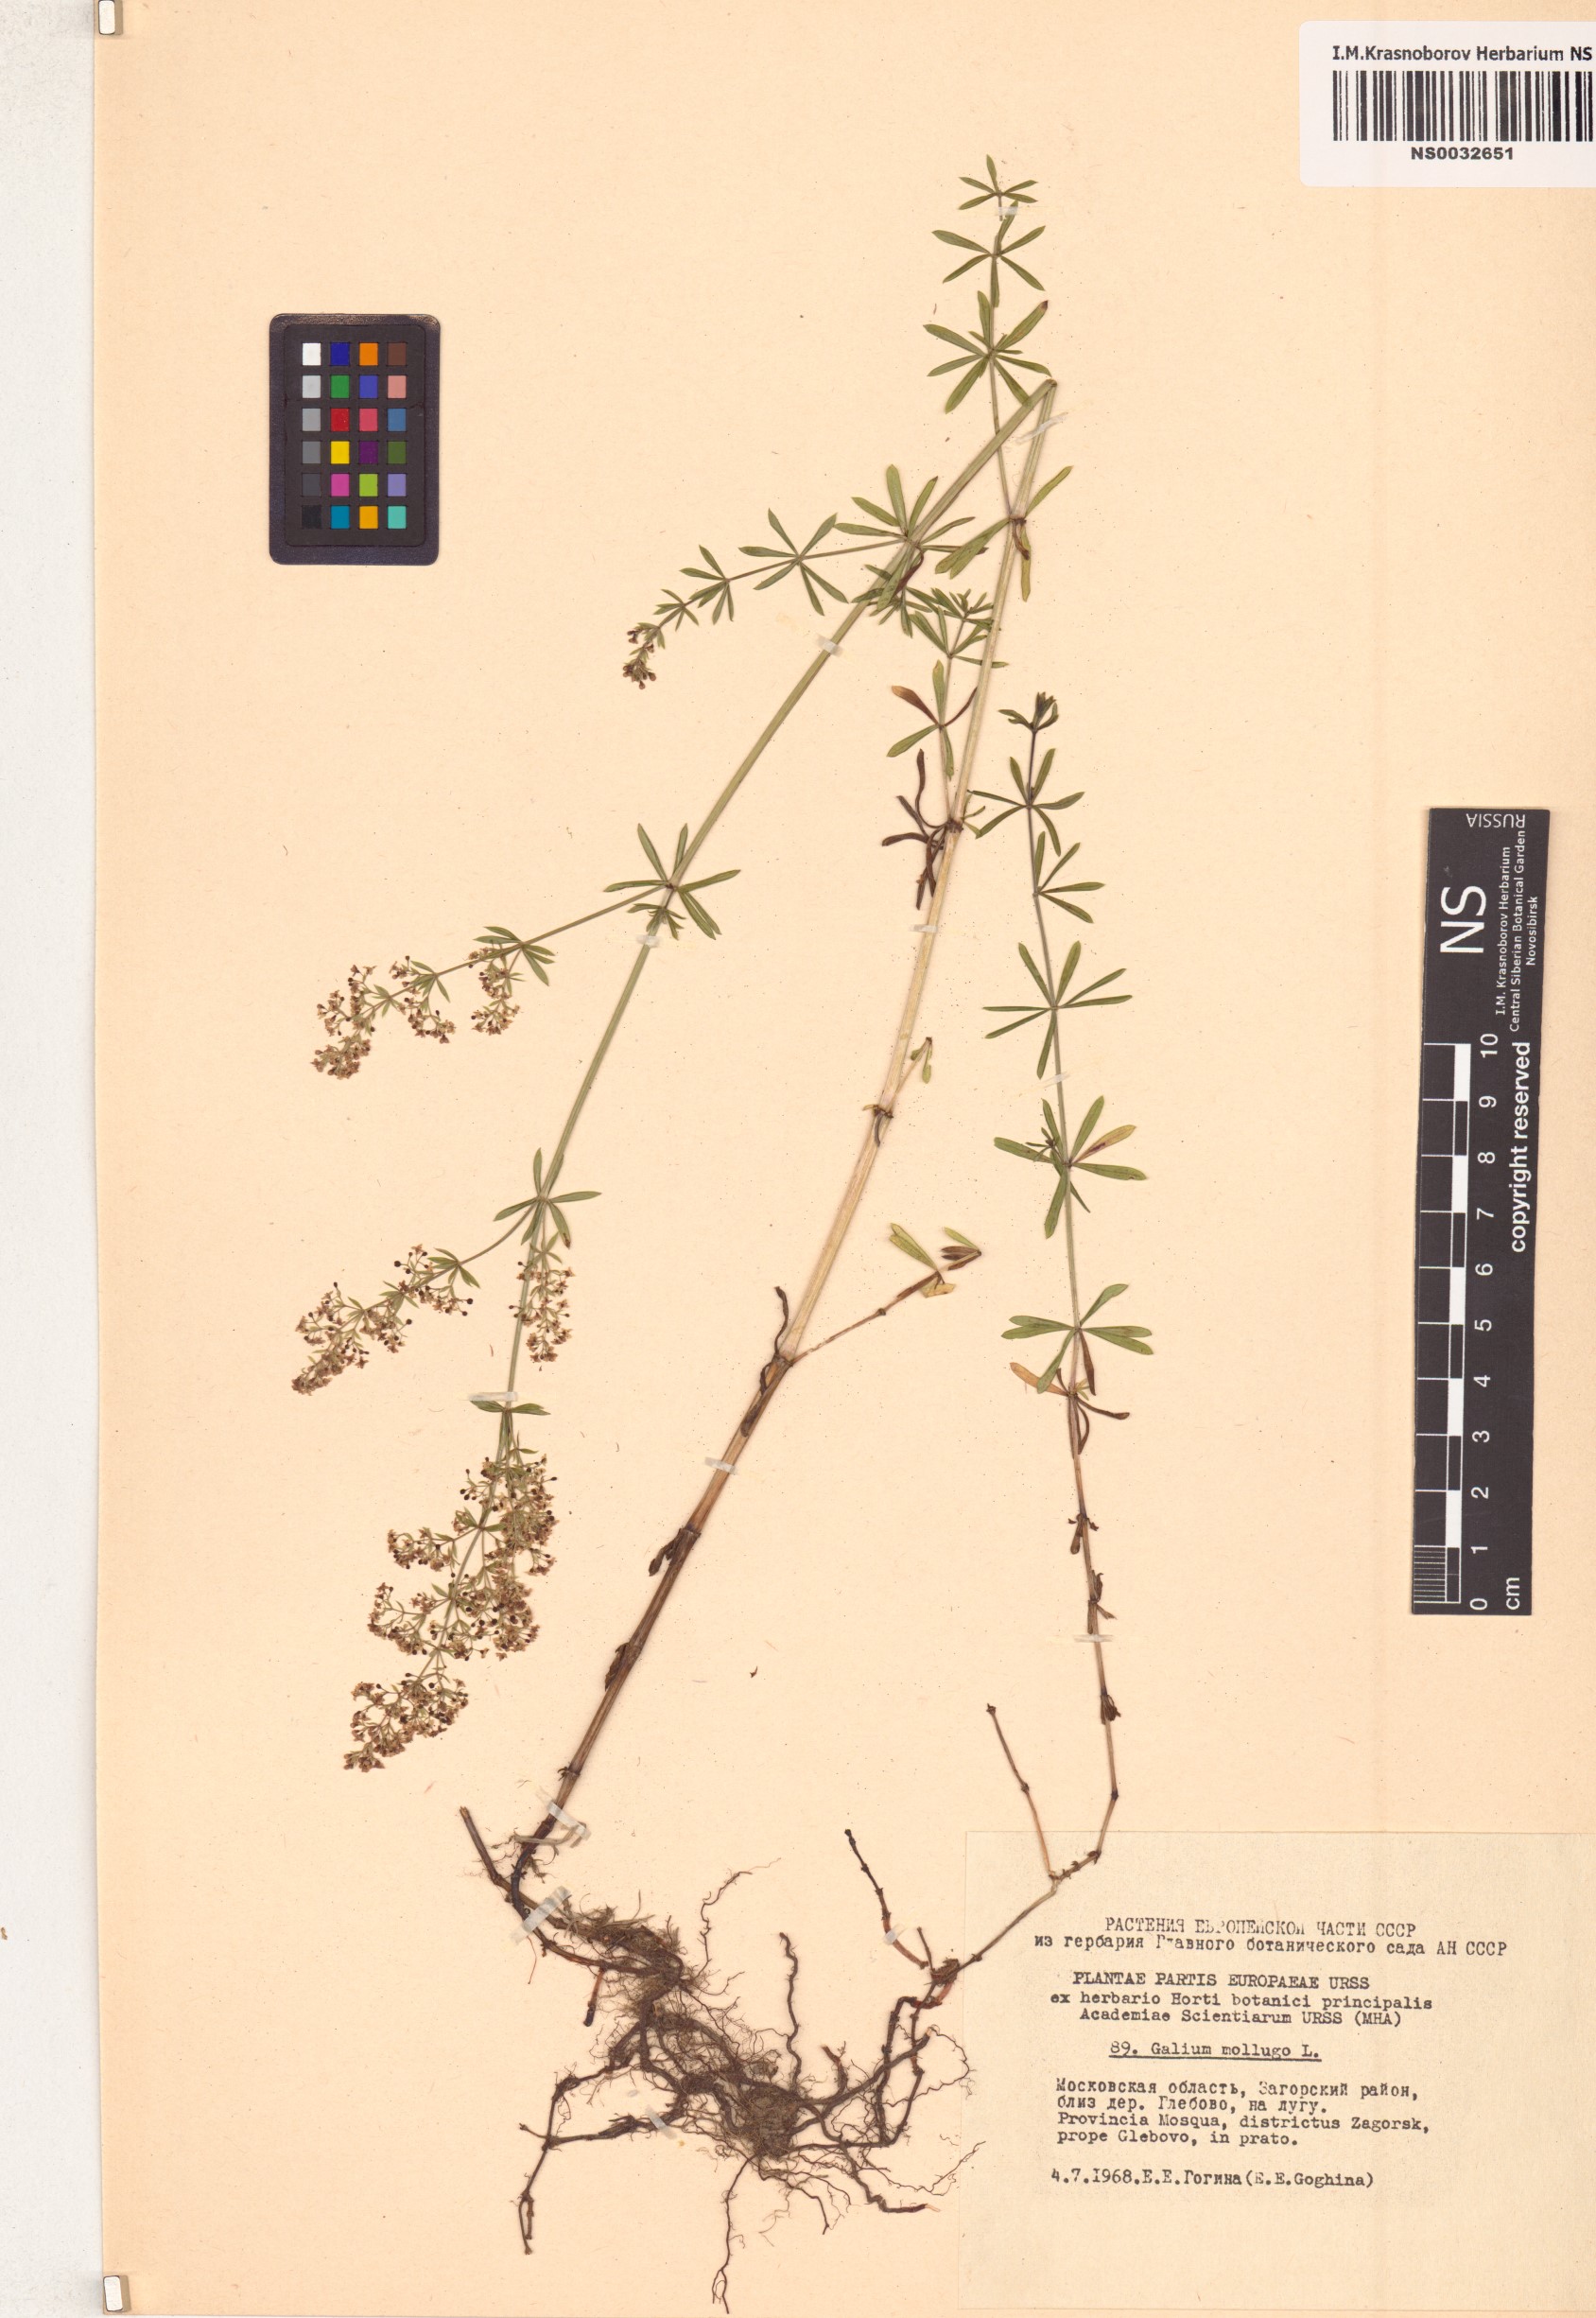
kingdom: Plantae
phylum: Tracheophyta
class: Magnoliopsida
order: Gentianales
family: Rubiaceae
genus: Galium
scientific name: Galium mollugo
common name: Hedge bedstraw
